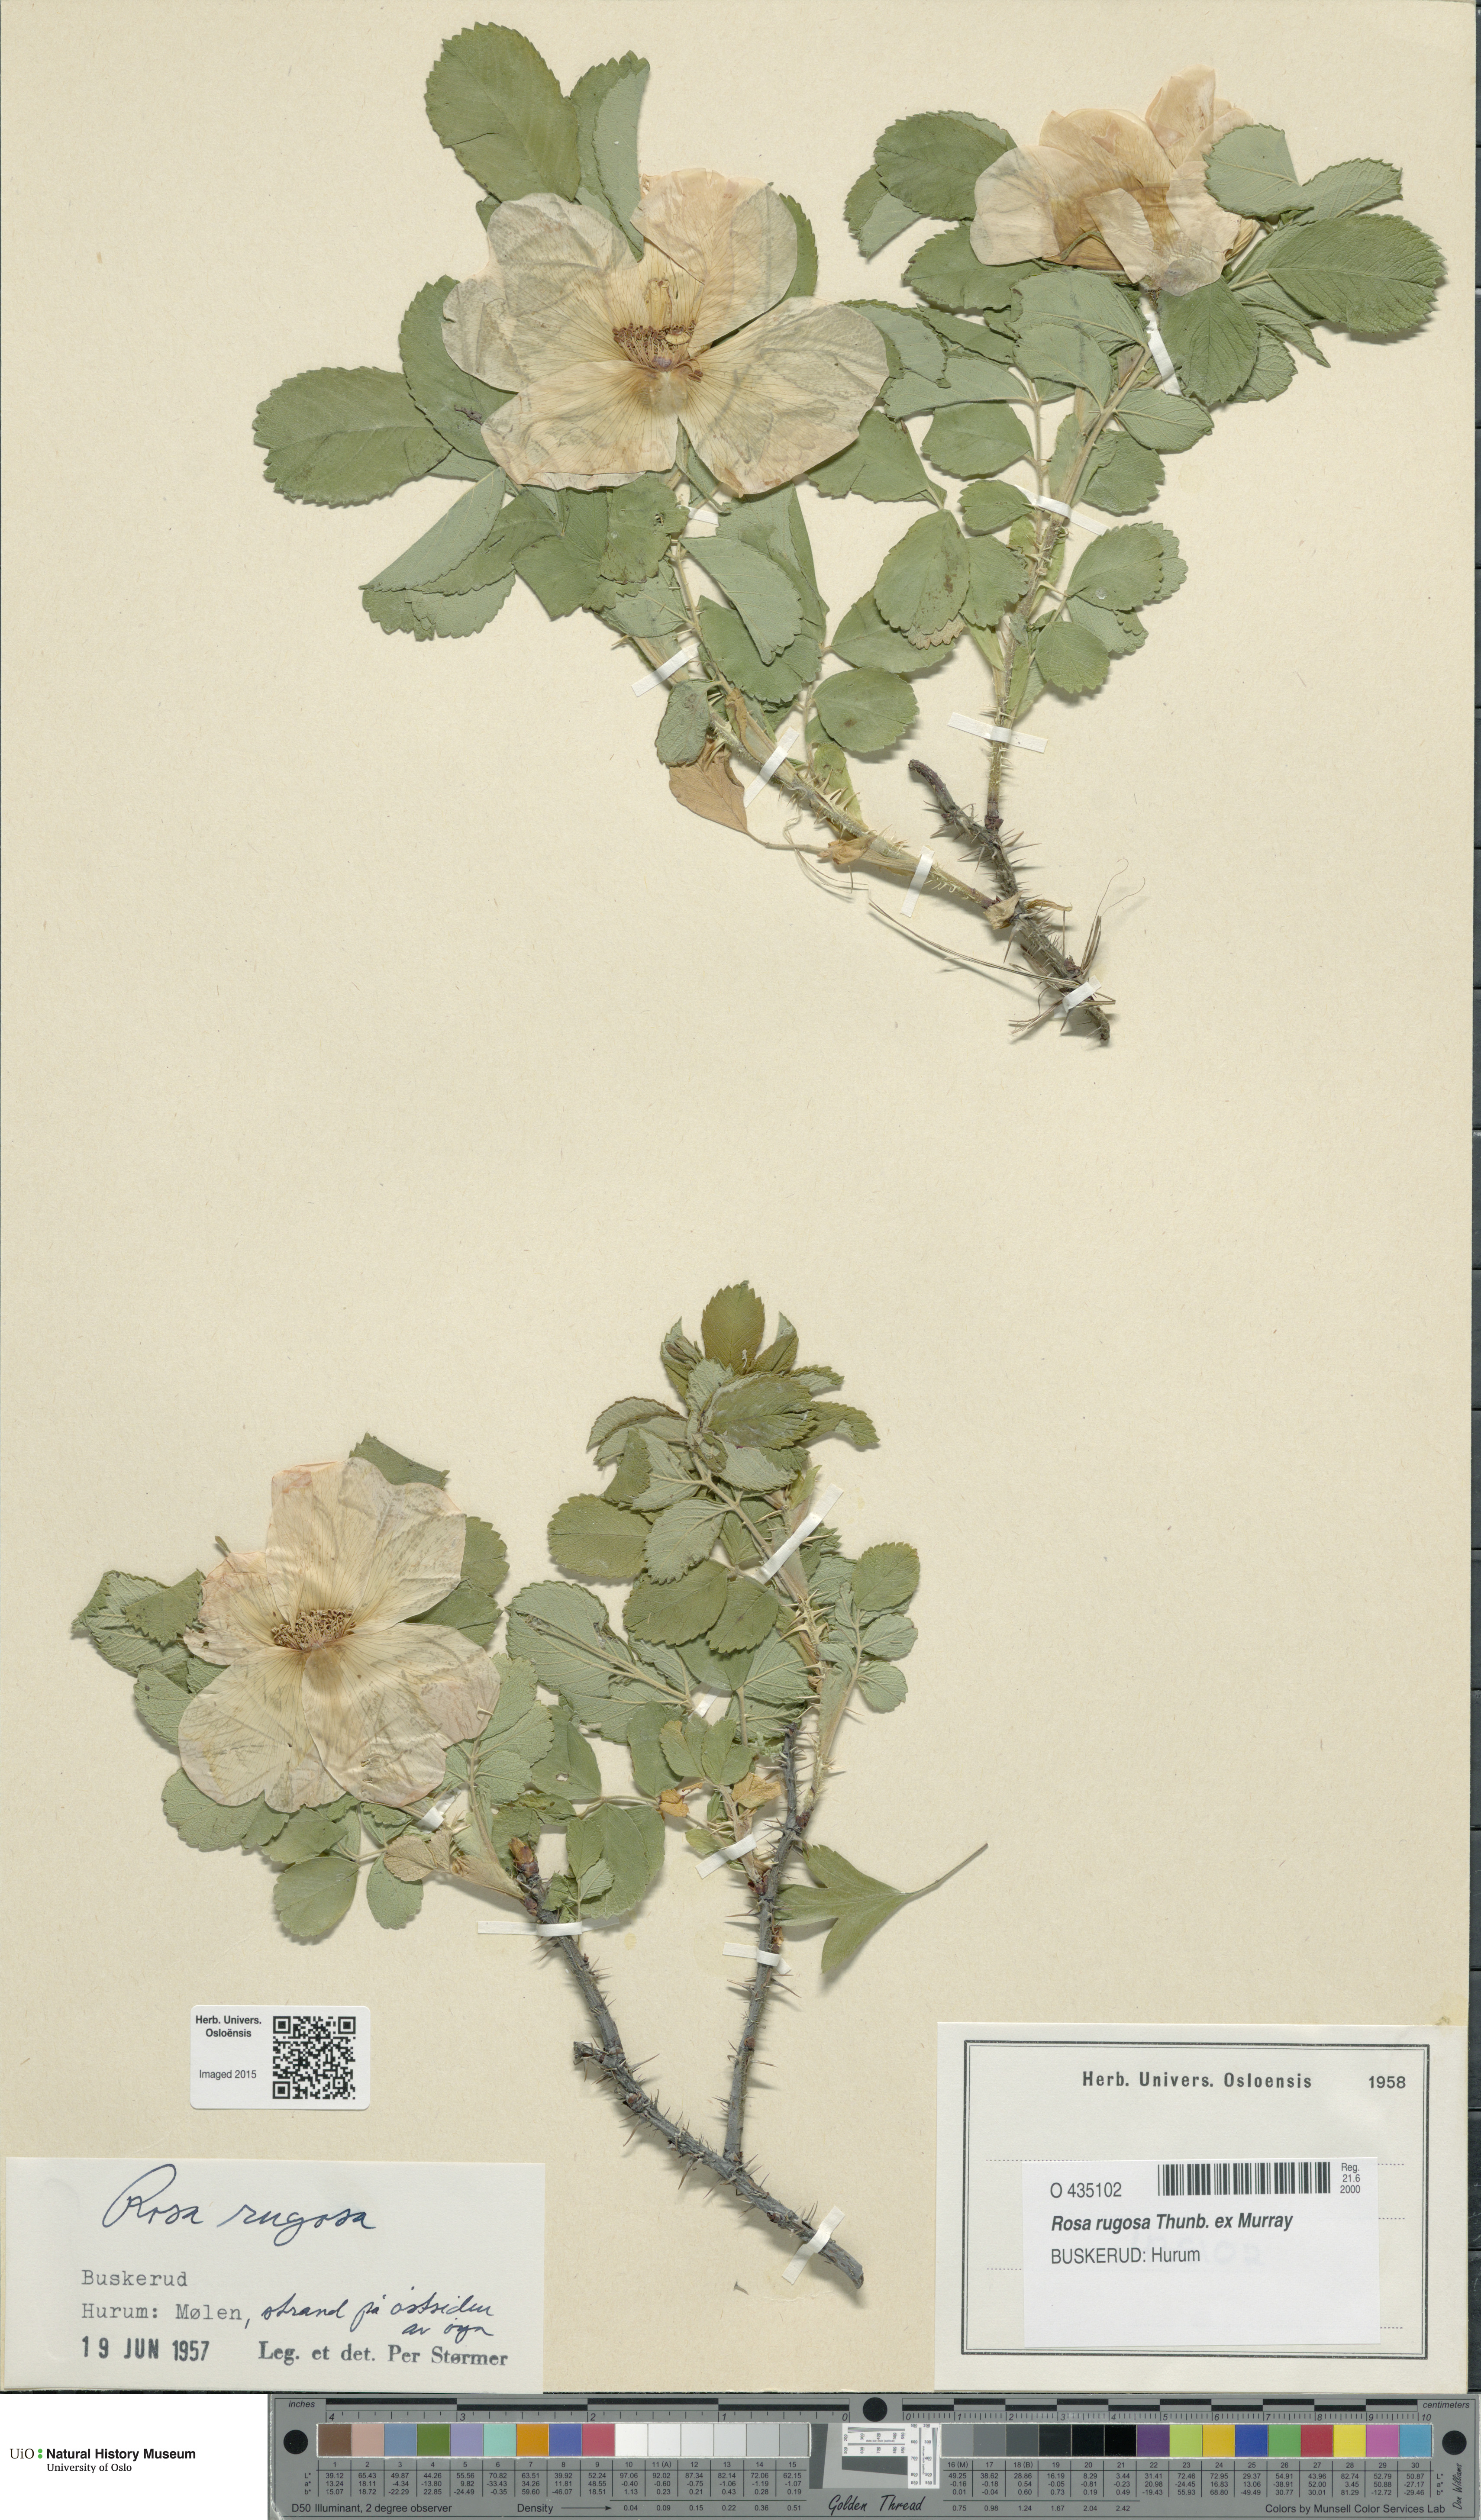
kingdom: Plantae
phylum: Tracheophyta
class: Magnoliopsida
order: Rosales
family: Rosaceae
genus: Rosa
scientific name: Rosa rugosa
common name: Japanese rose
